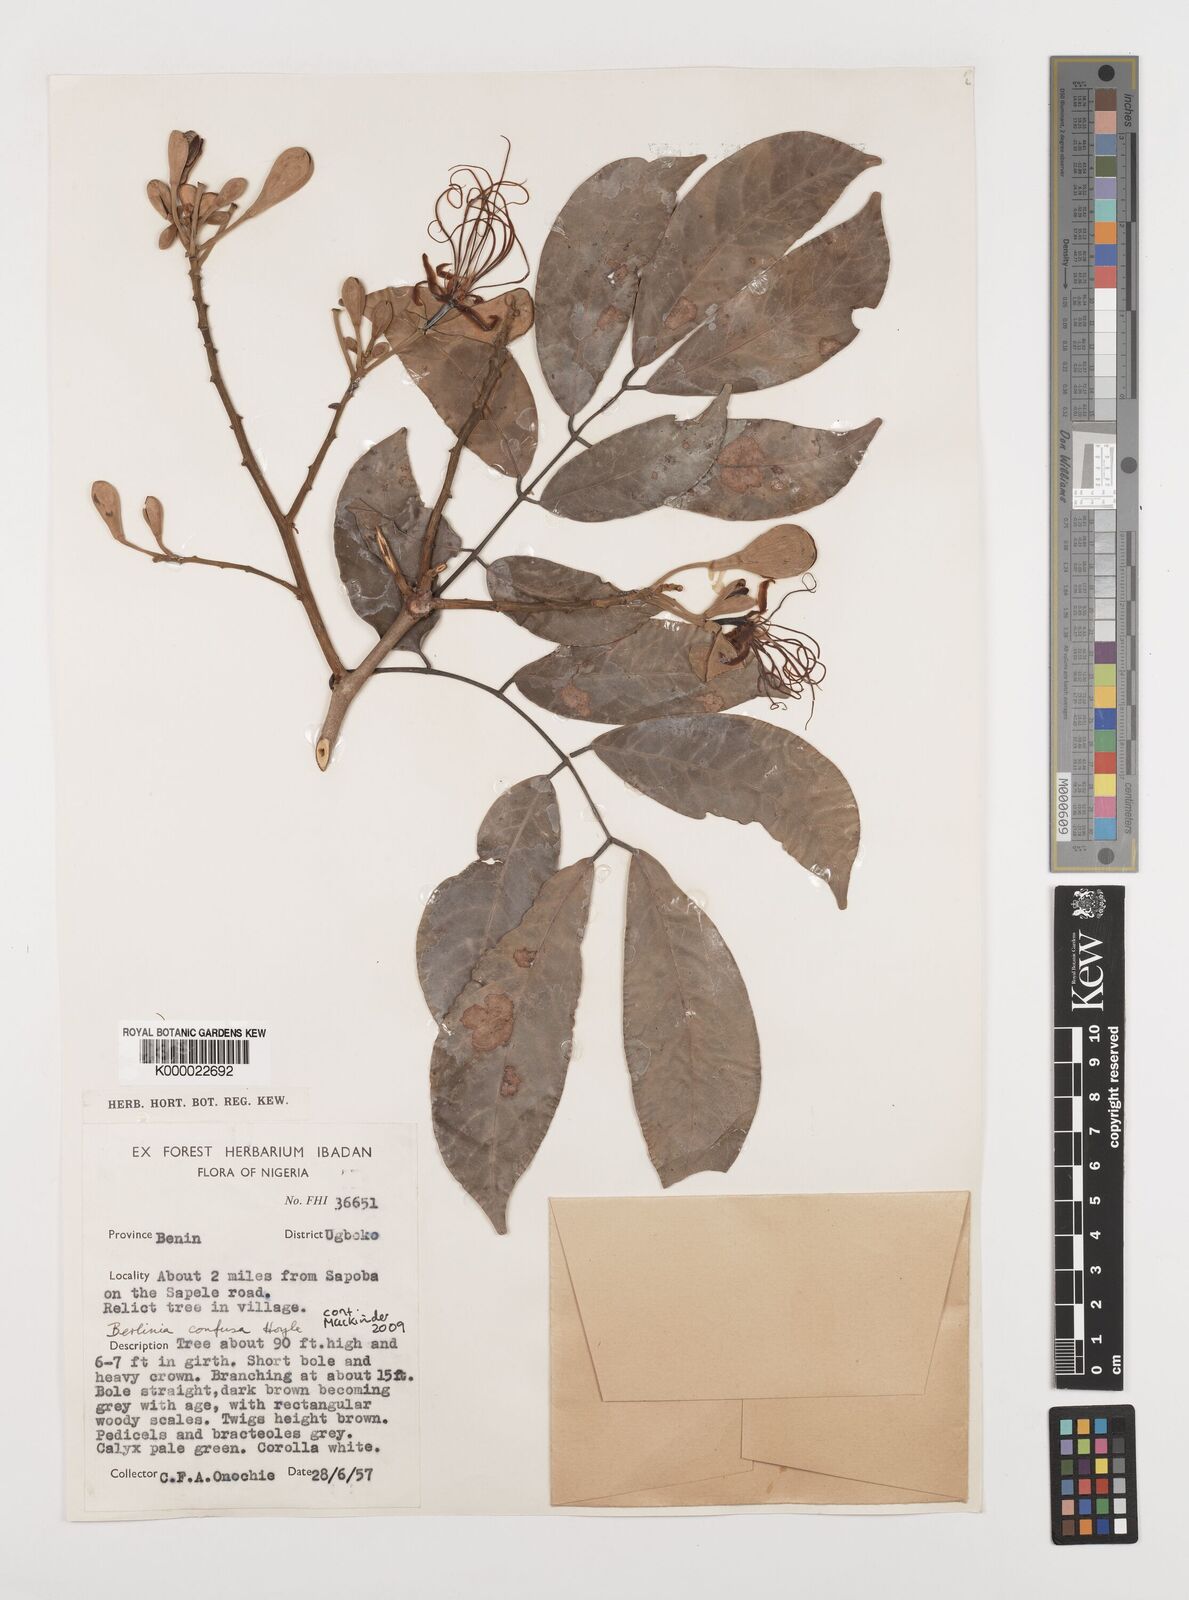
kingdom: Plantae
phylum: Tracheophyta
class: Magnoliopsida
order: Fabales
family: Fabaceae
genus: Berlinia
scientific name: Berlinia confusa
